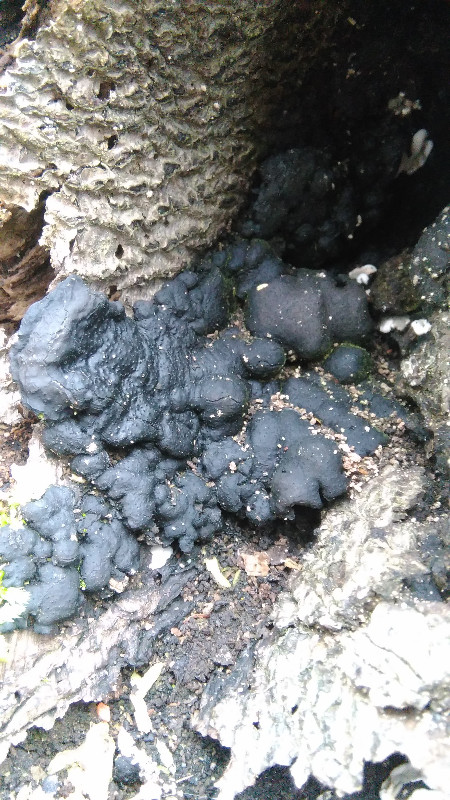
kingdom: Fungi
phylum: Ascomycota
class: Sordariomycetes
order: Xylariales
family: Xylariaceae
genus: Kretzschmaria
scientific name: Kretzschmaria deusta
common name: stor kulsvamp
